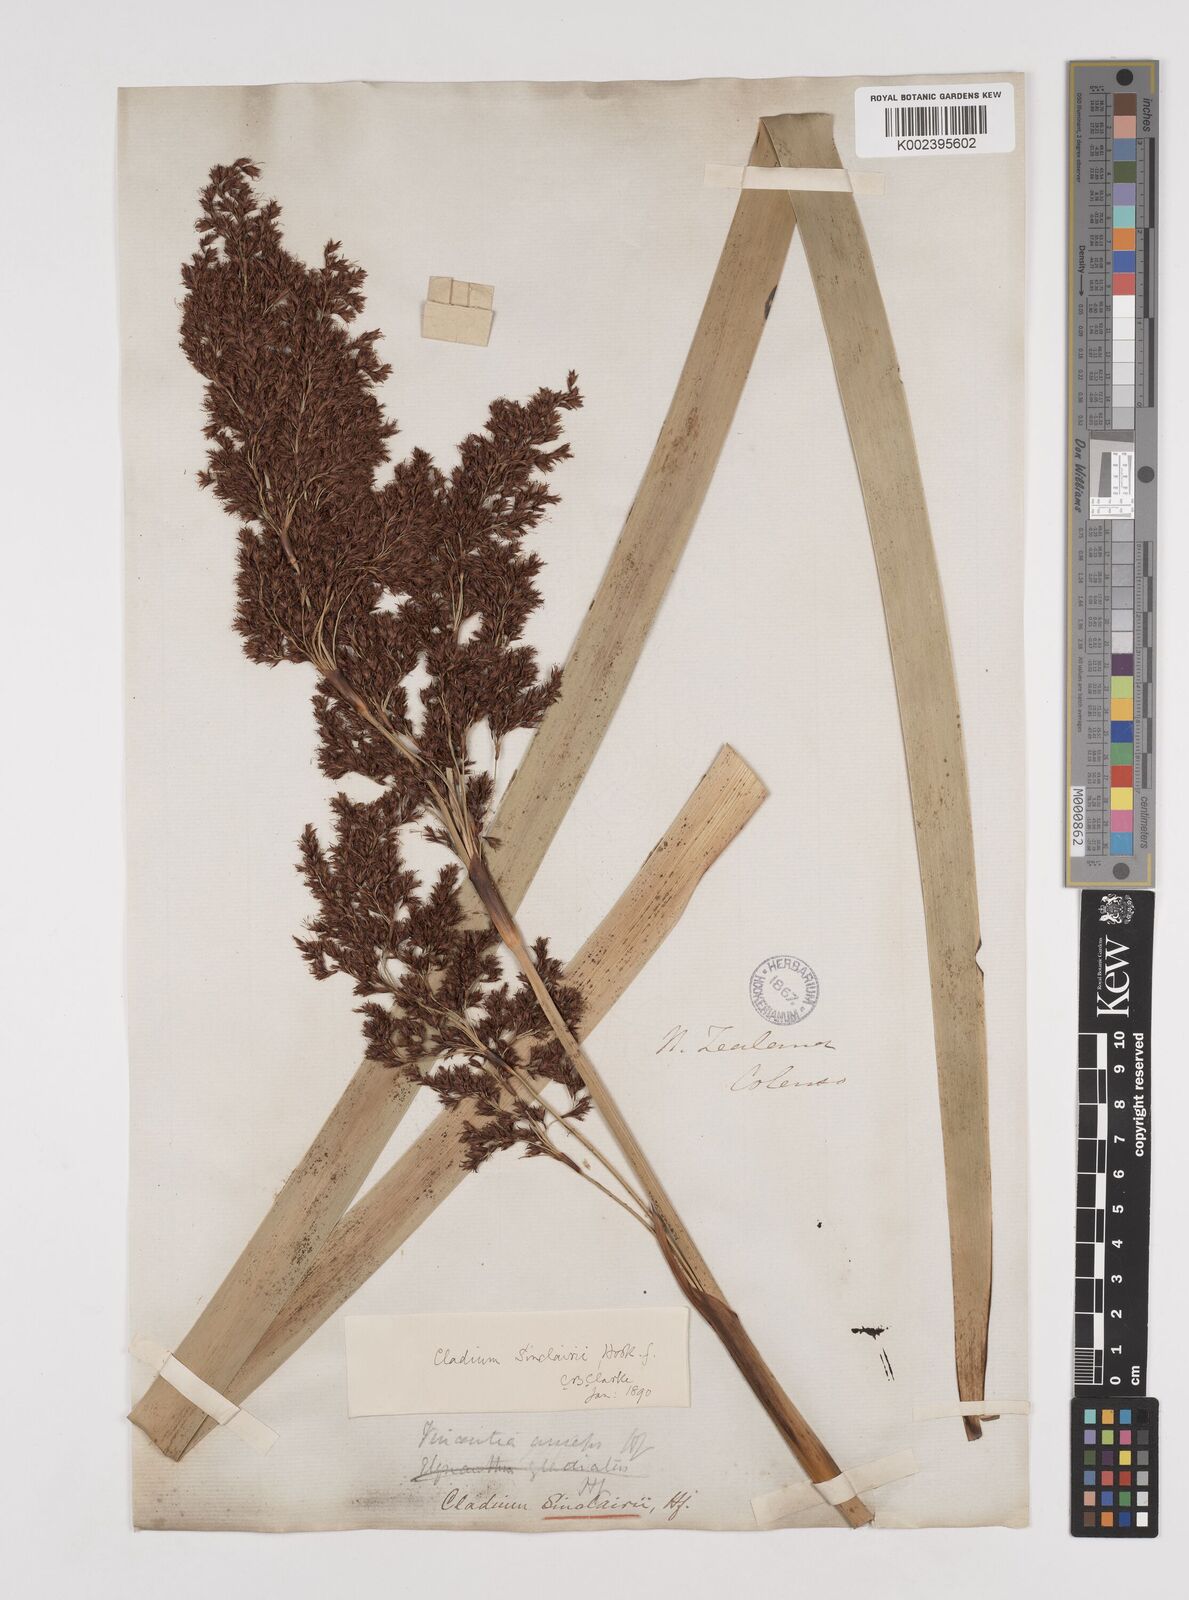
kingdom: Plantae
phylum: Tracheophyta
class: Liliopsida
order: Poales
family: Cyperaceae
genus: Machaerina
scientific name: Machaerina sinclairii
